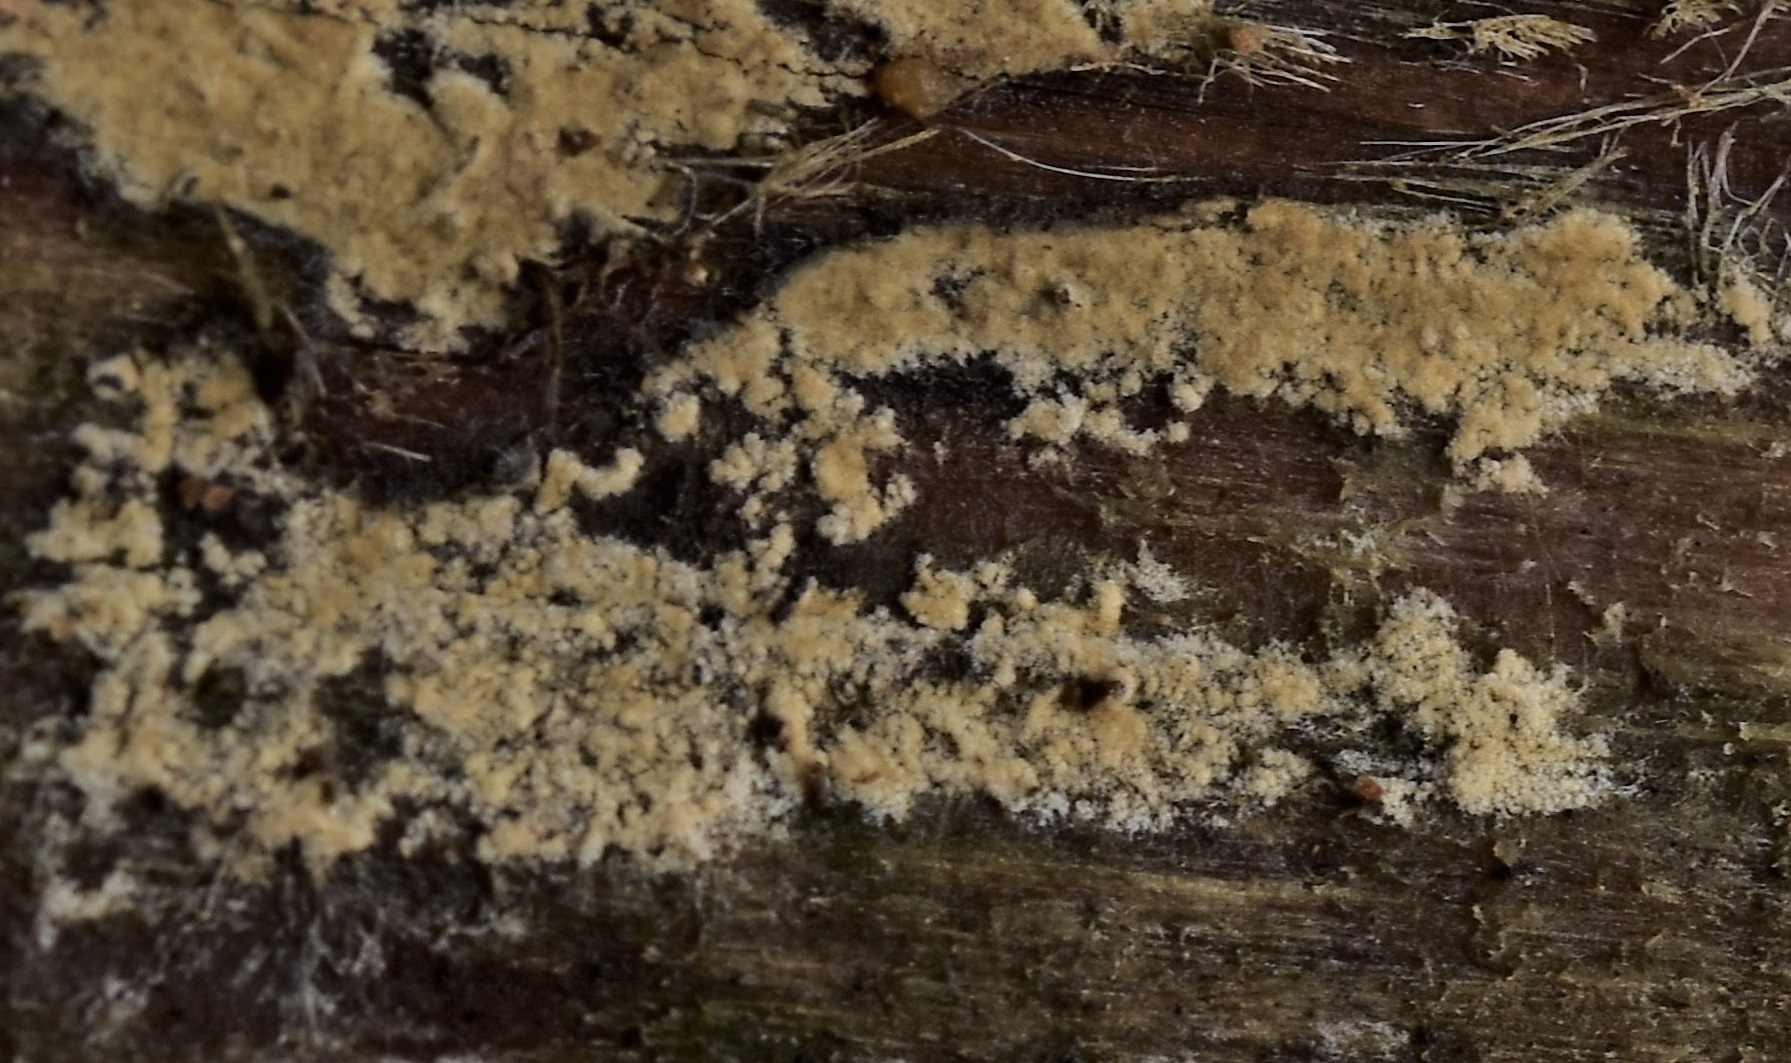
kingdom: Fungi
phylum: Basidiomycota
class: Agaricomycetes
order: Boletales
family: Coniophoraceae
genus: Coniophora
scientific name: Coniophora arida
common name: tynd tømmersvamp
